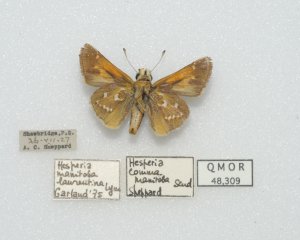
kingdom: Animalia
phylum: Arthropoda
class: Insecta
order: Lepidoptera
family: Hesperiidae
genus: Hesperia
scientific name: Hesperia comma
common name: Common Branded Skipper
